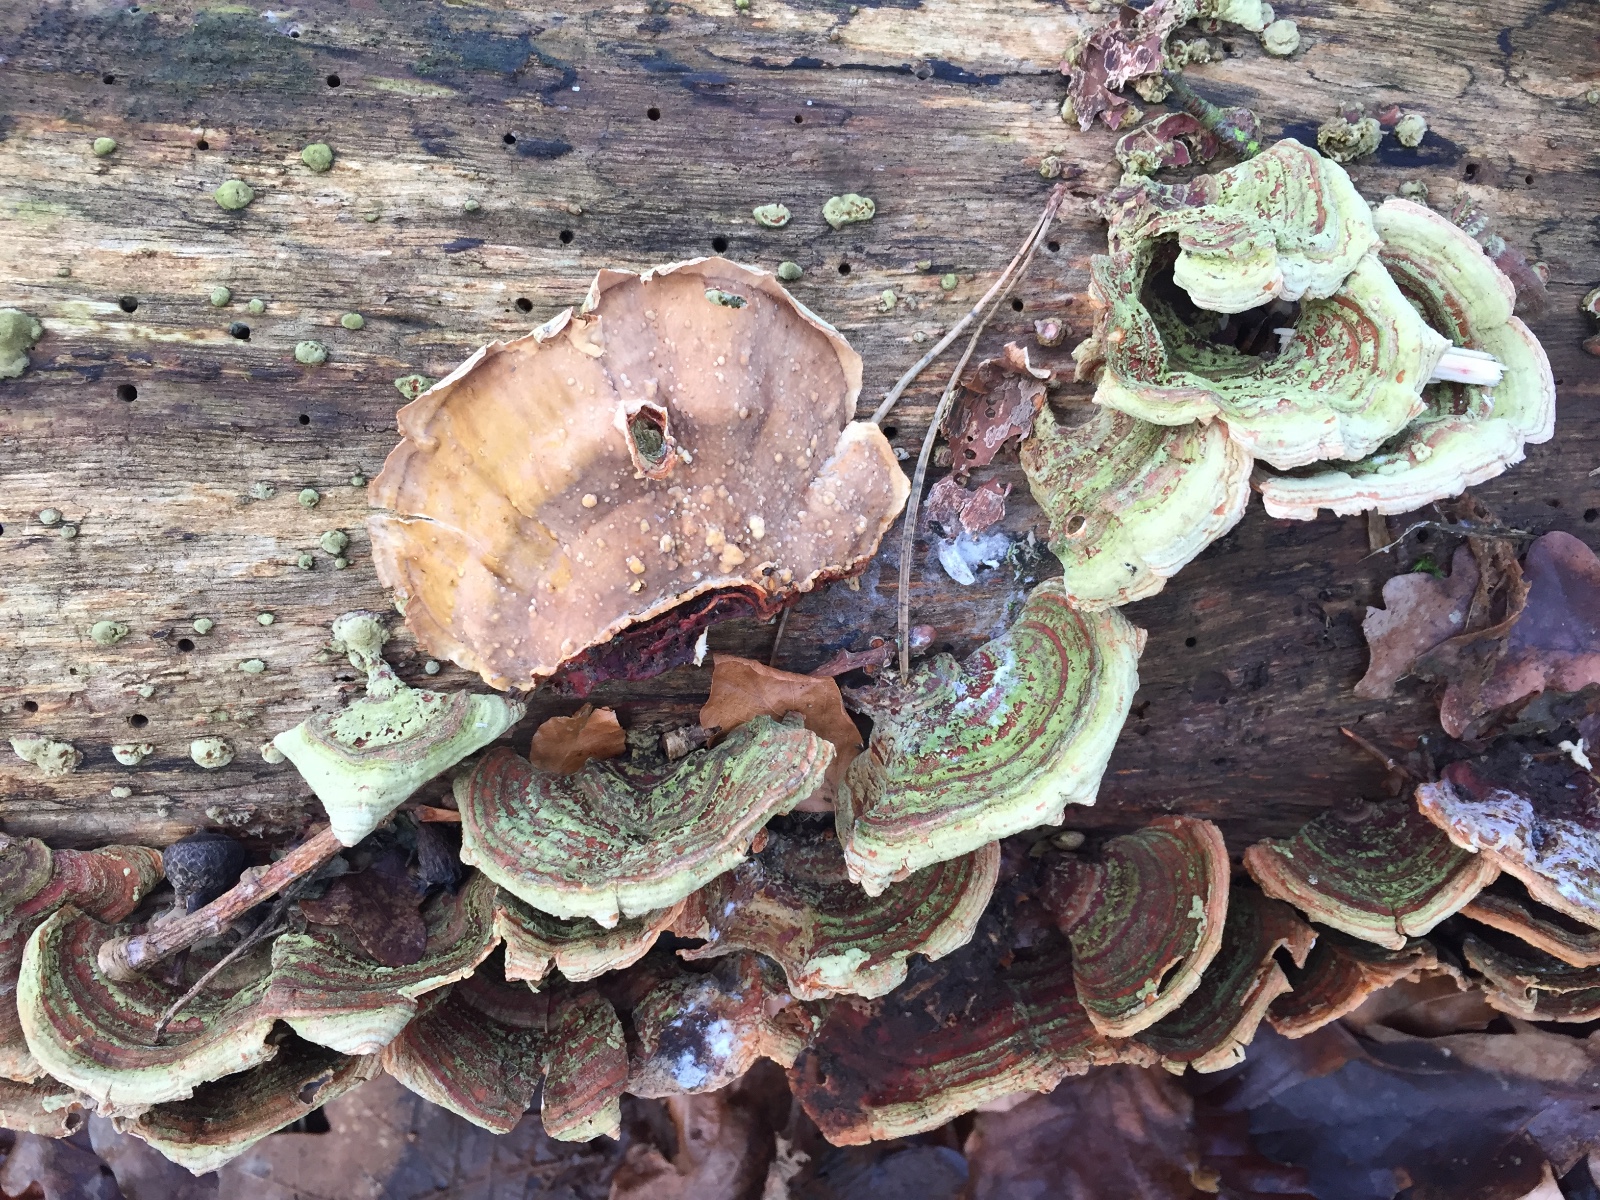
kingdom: Fungi
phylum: Basidiomycota
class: Agaricomycetes
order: Russulales
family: Stereaceae
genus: Stereum
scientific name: Stereum subtomentosum
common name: smuk lædersvamp
